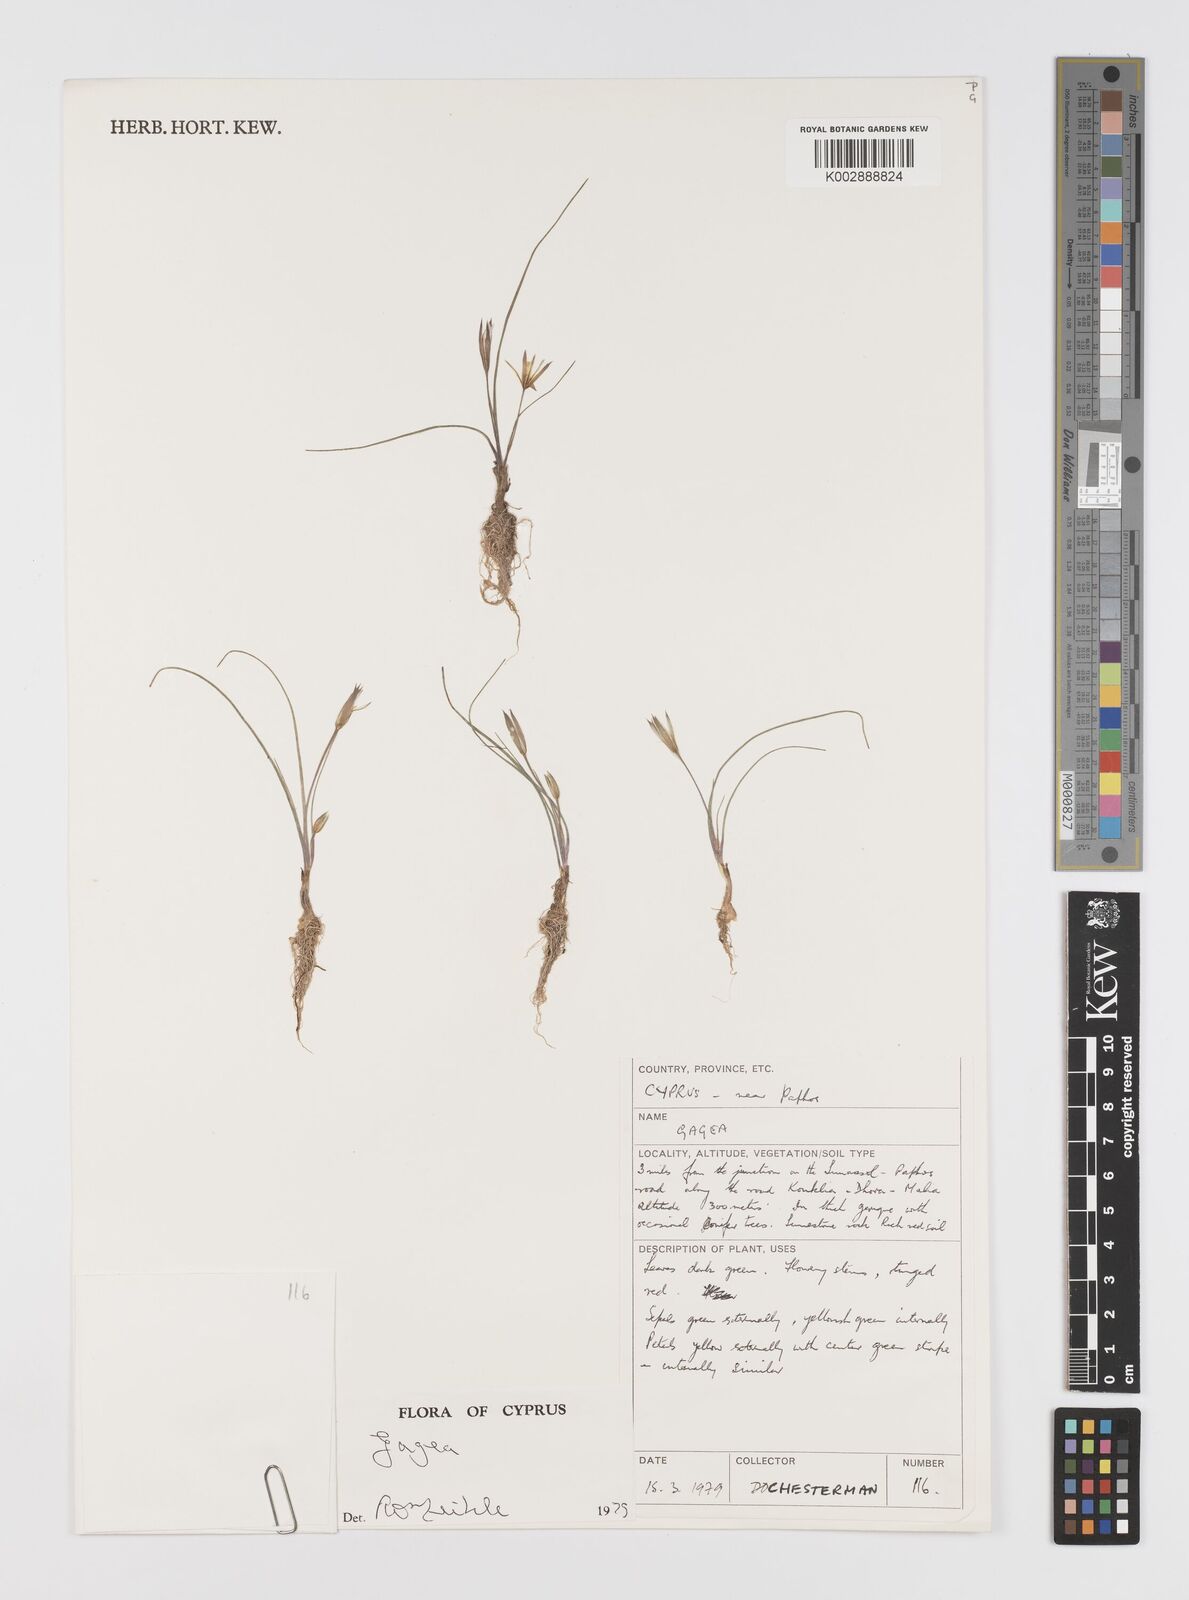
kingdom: Plantae
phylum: Tracheophyta
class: Liliopsida
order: Liliales
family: Liliaceae
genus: Gagea
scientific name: Gagea
